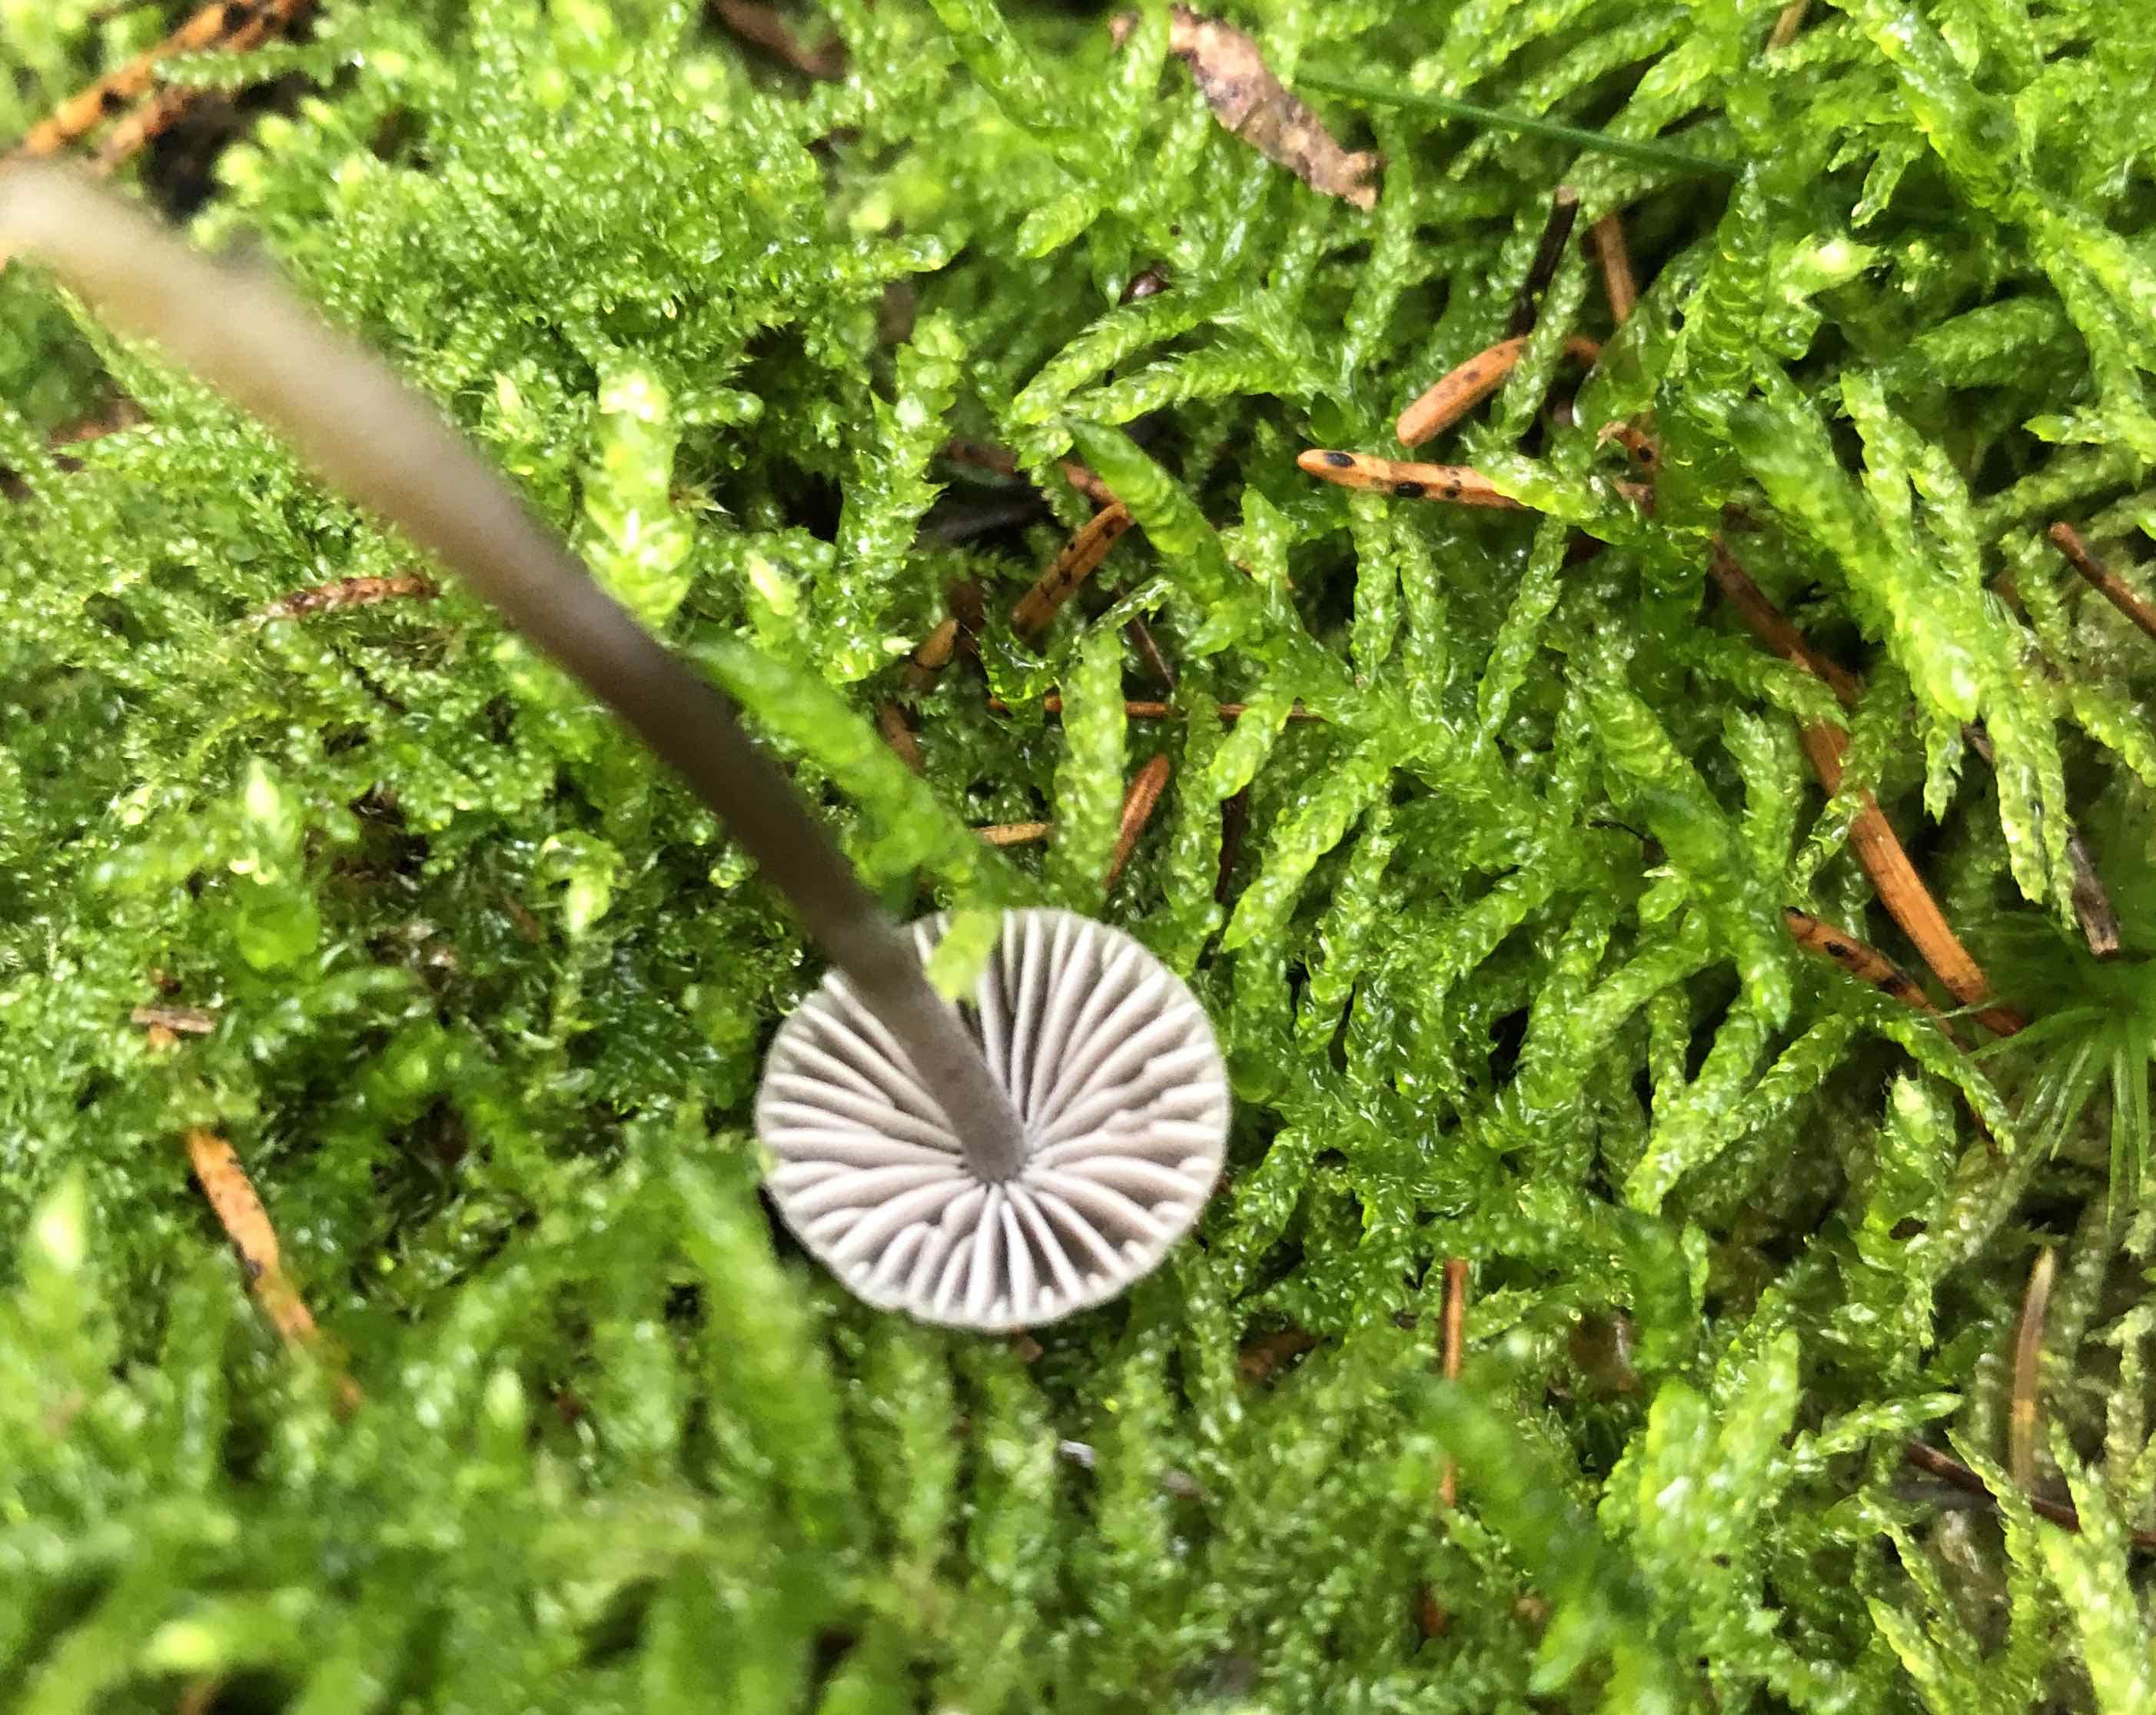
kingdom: Fungi
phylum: Basidiomycota
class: Agaricomycetes
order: Agaricales
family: Mycenaceae
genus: Mycena
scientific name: Mycena
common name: huesvamp
